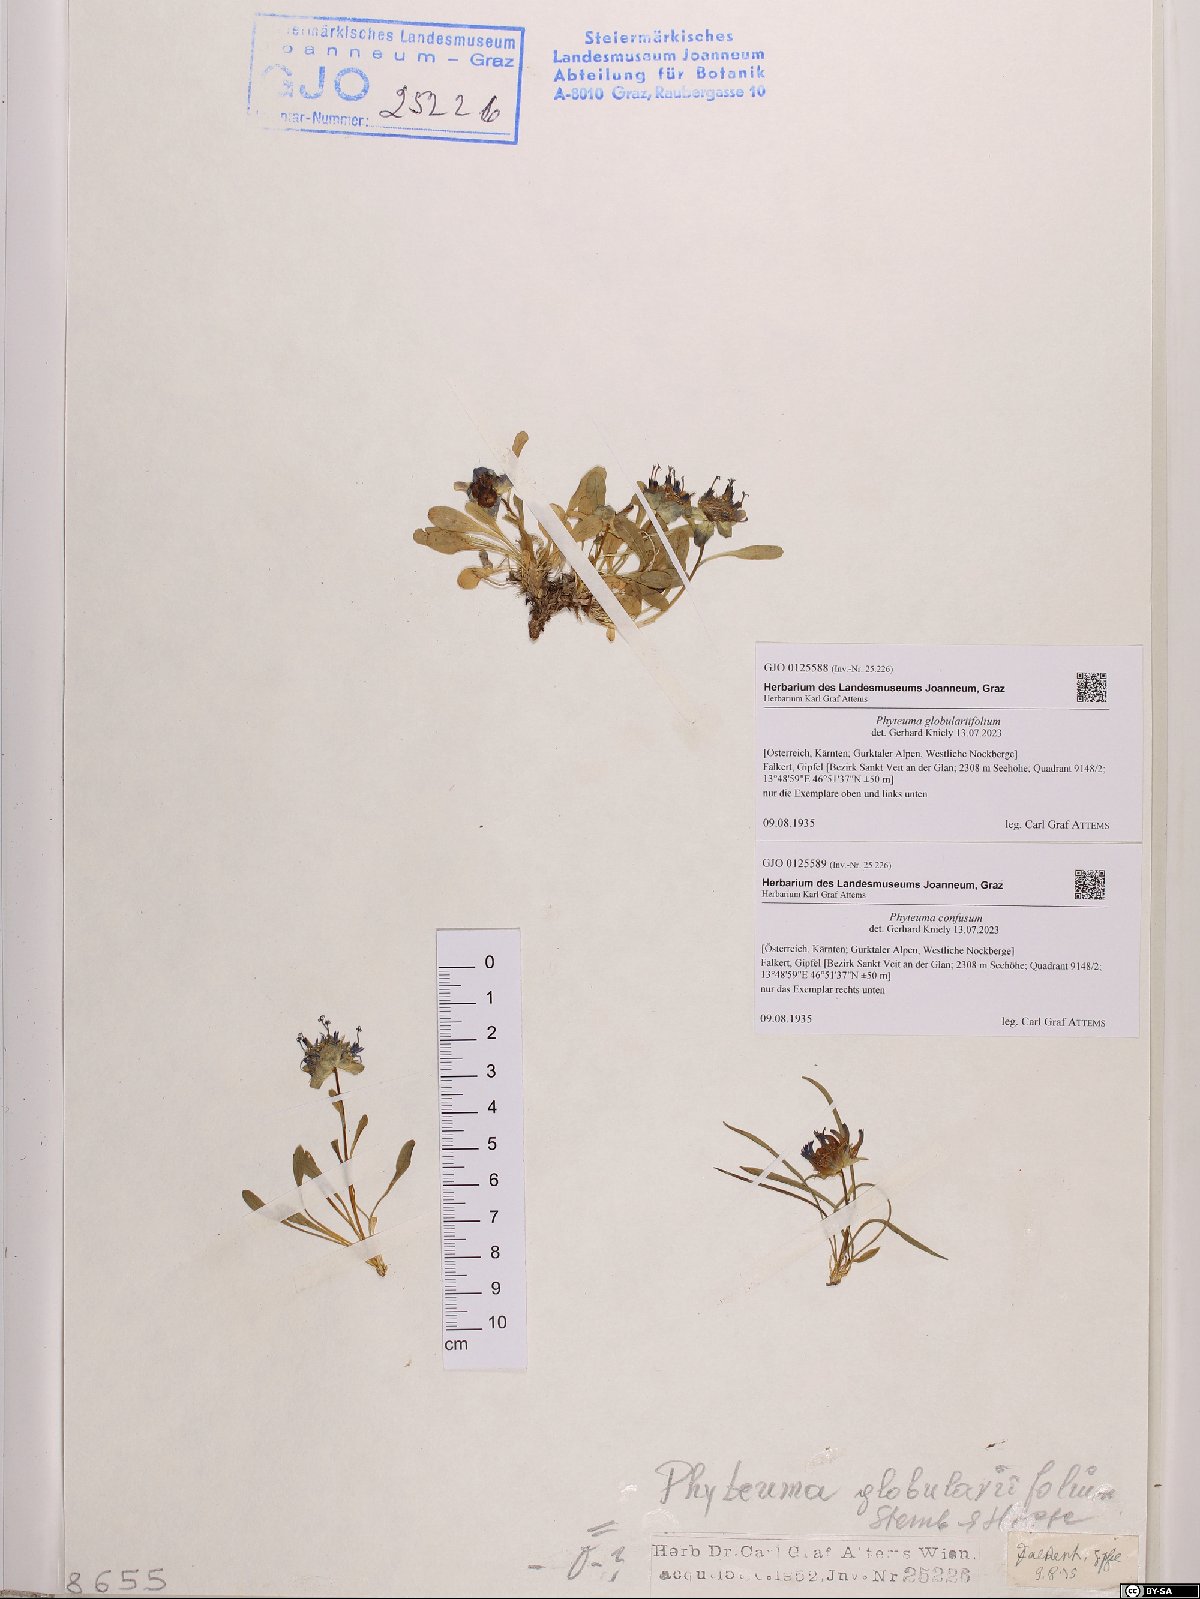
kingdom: Plantae
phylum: Tracheophyta
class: Magnoliopsida
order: Asterales
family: Campanulaceae
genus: Phyteuma
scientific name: Phyteuma globulariifolium
